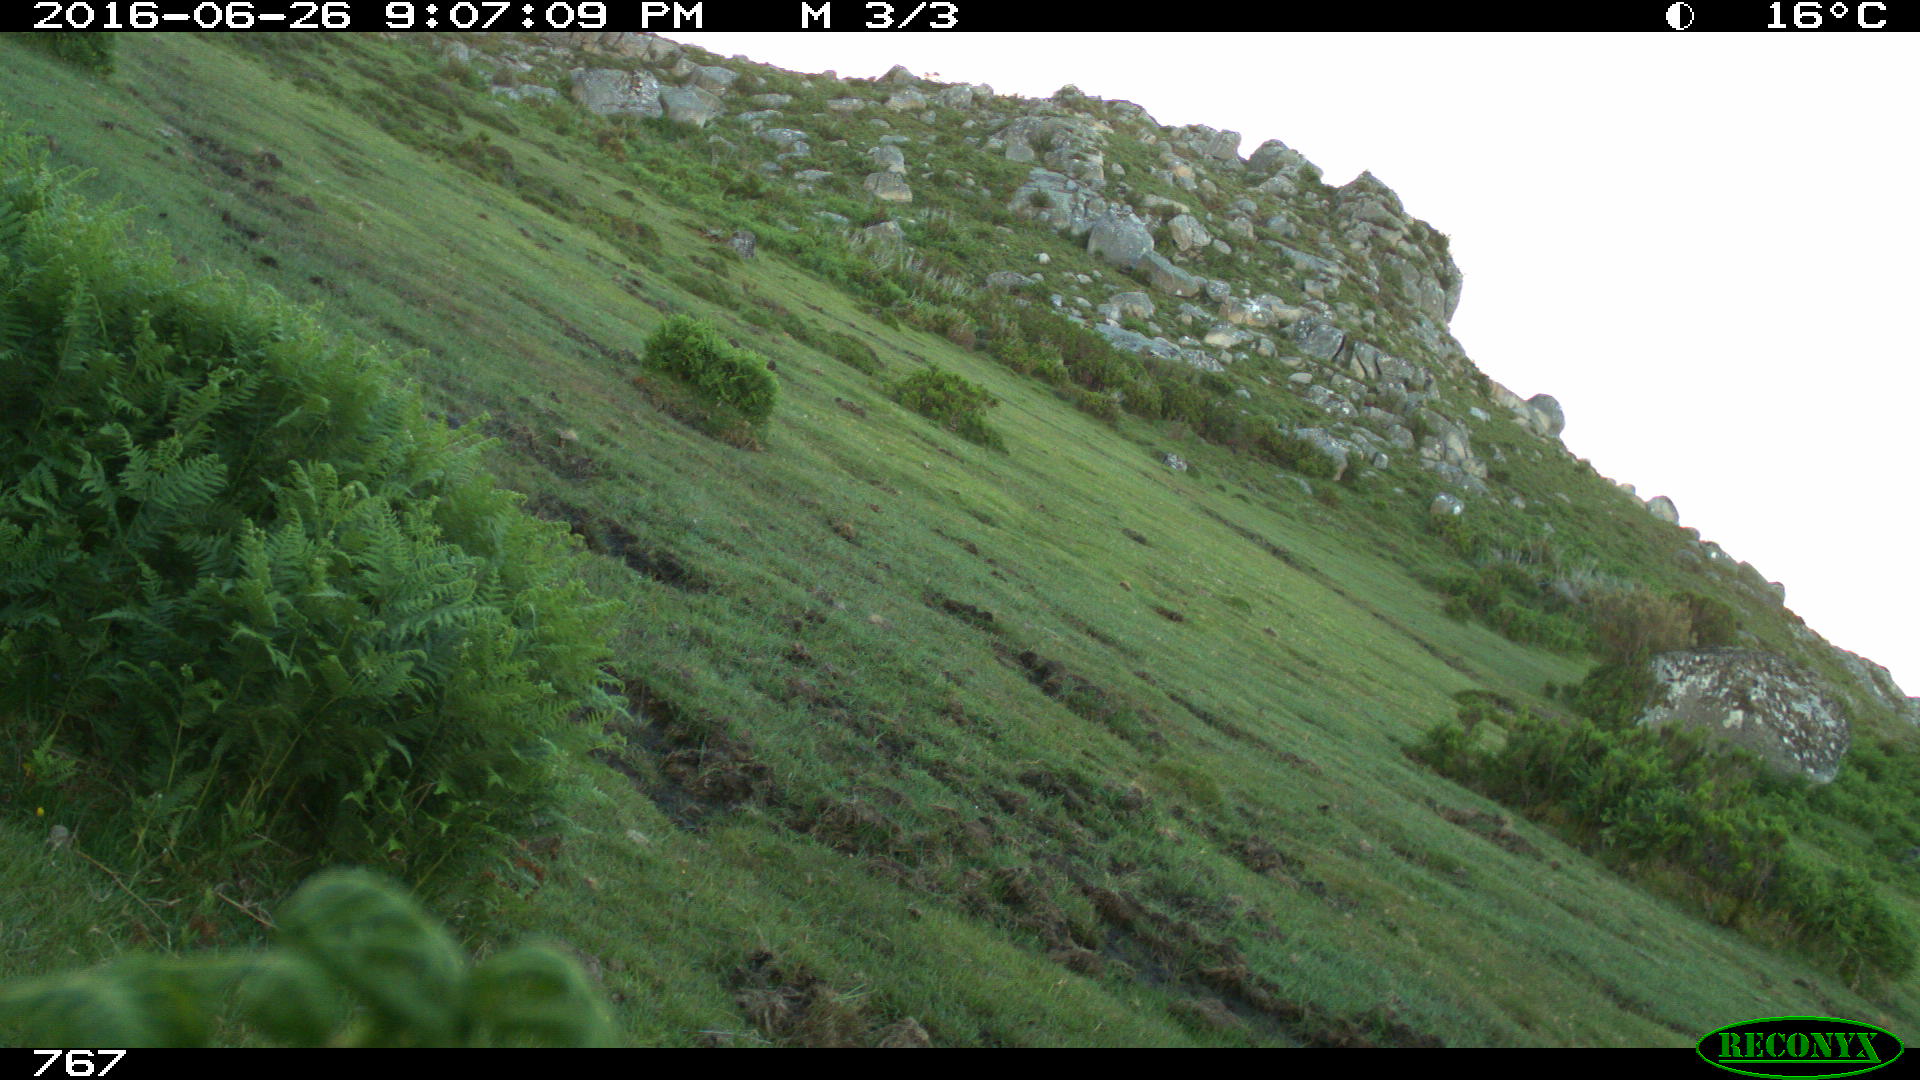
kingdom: Animalia
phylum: Chordata
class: Mammalia
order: Perissodactyla
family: Equidae
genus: Equus
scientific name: Equus caballus
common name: Horse
